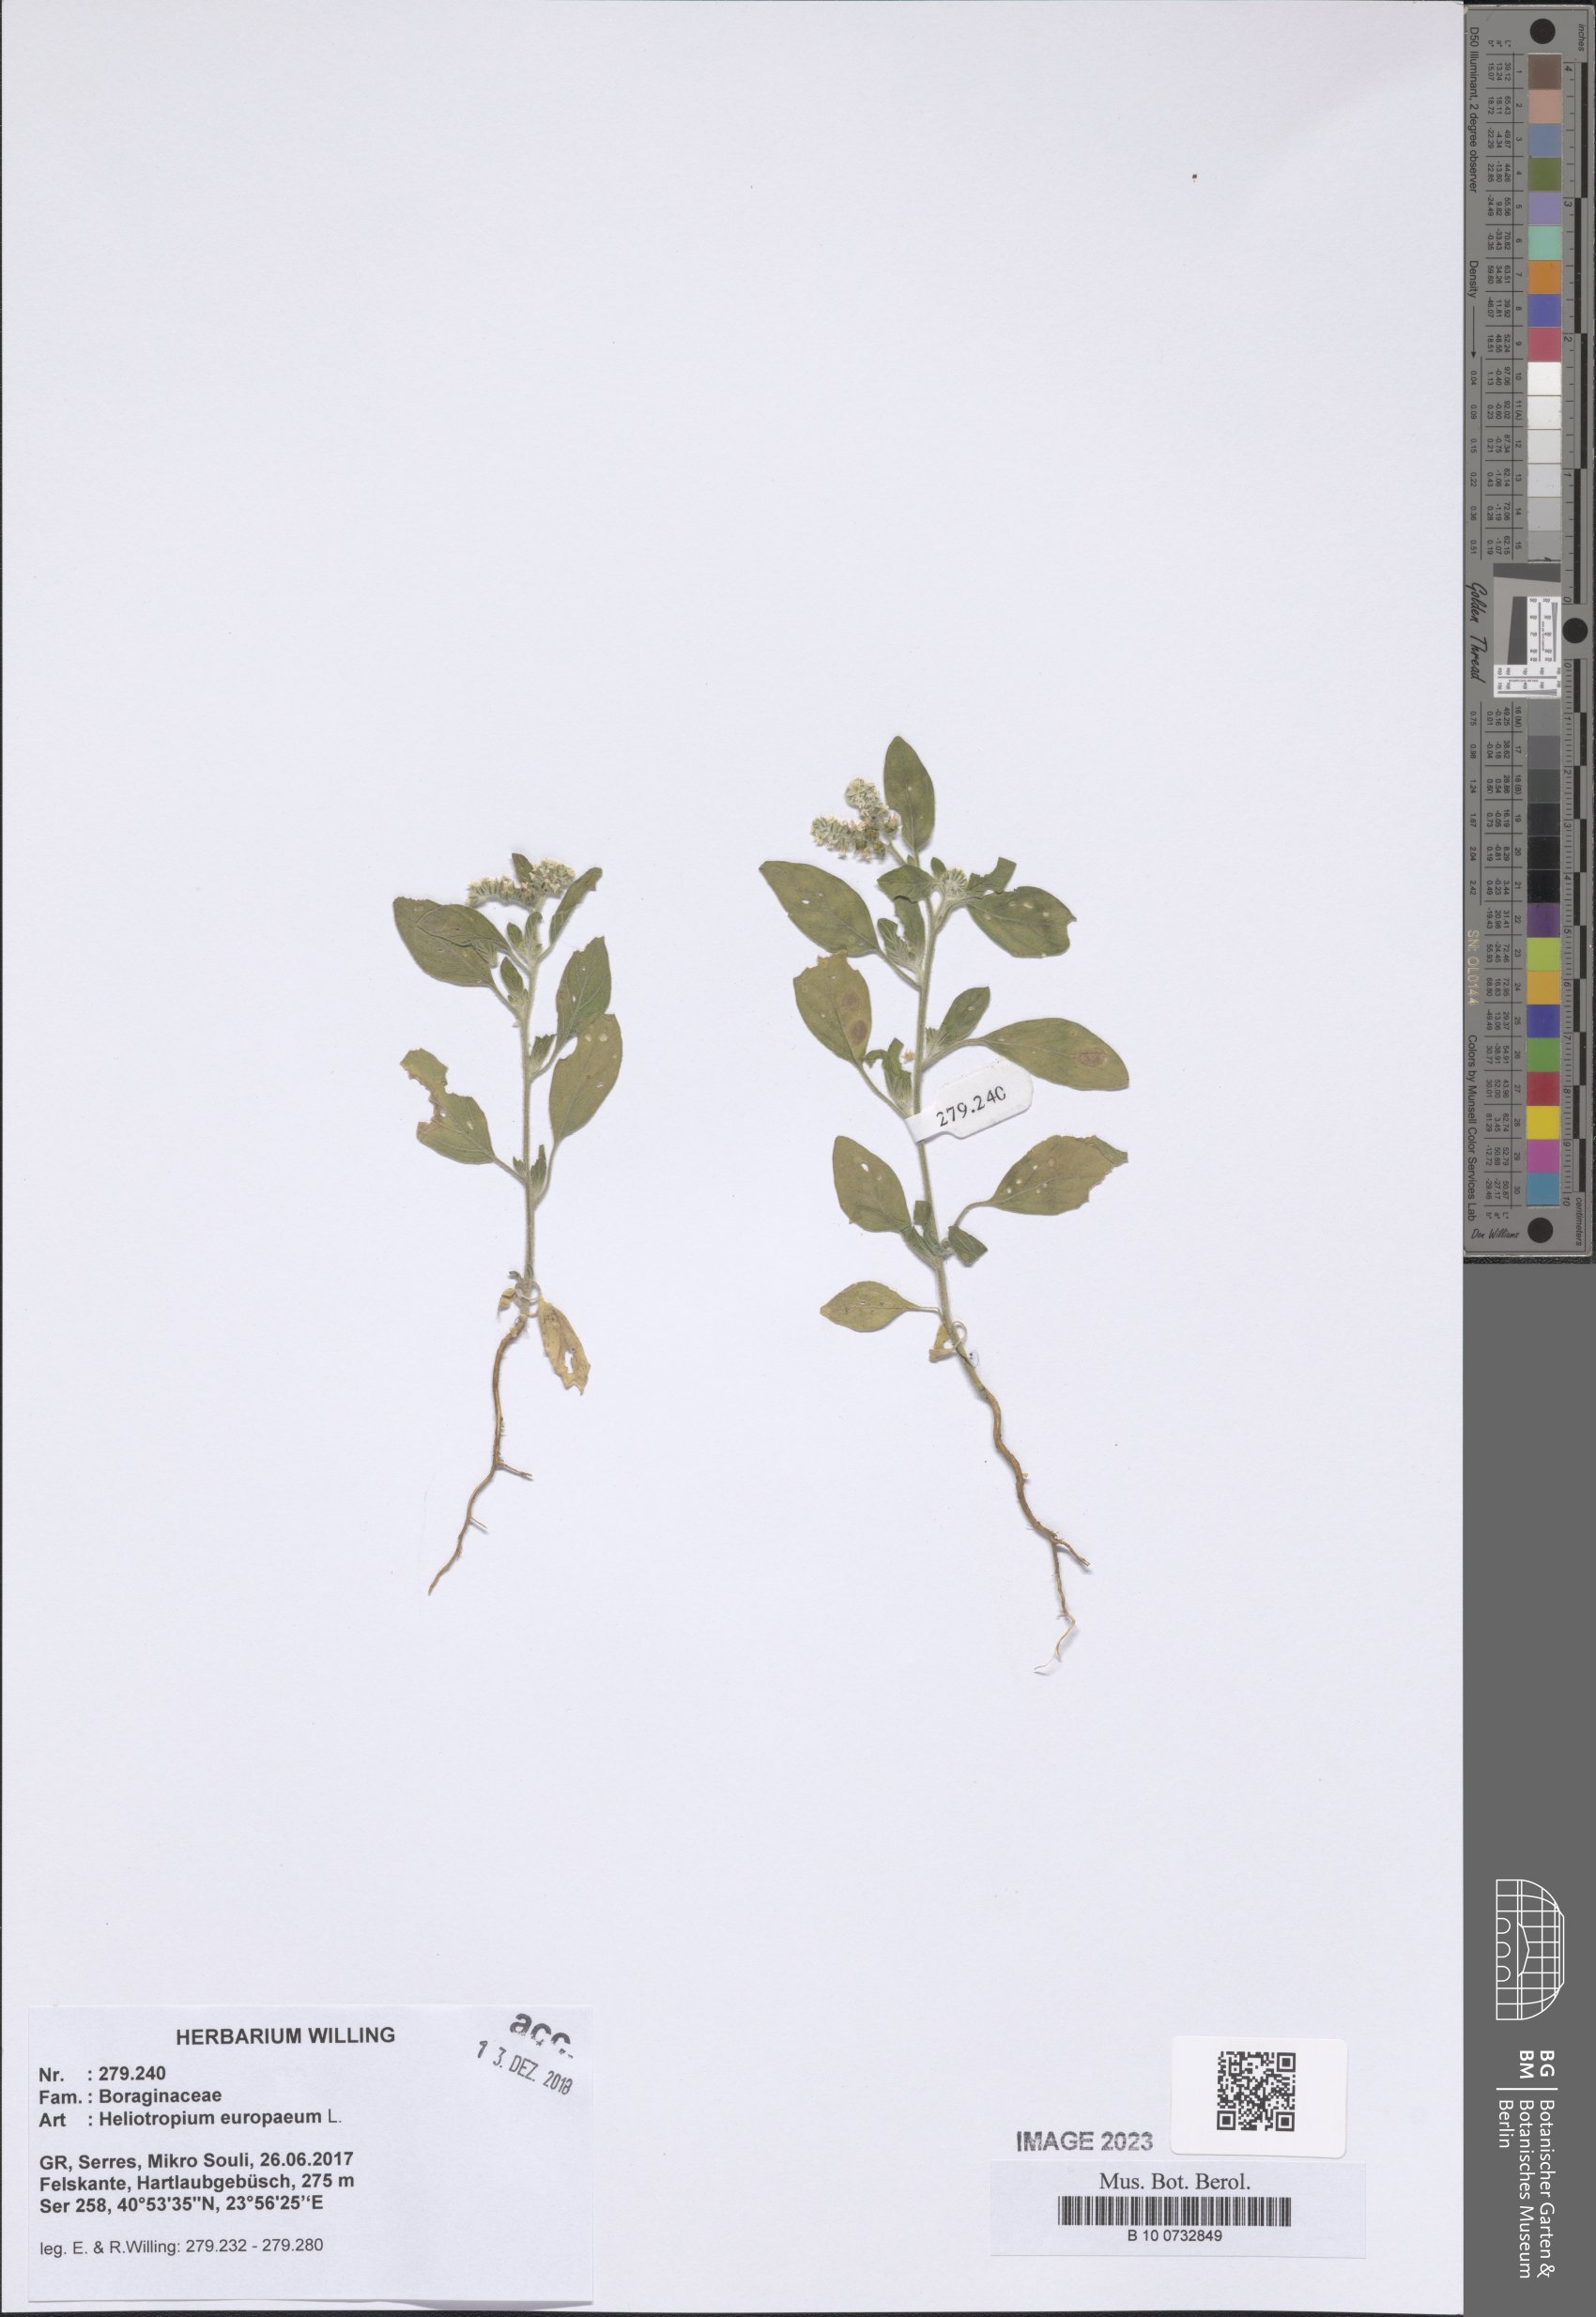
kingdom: Plantae
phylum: Tracheophyta
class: Magnoliopsida
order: Boraginales
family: Heliotropiaceae
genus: Heliotropium
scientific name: Heliotropium europaeum
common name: European heliotrope
